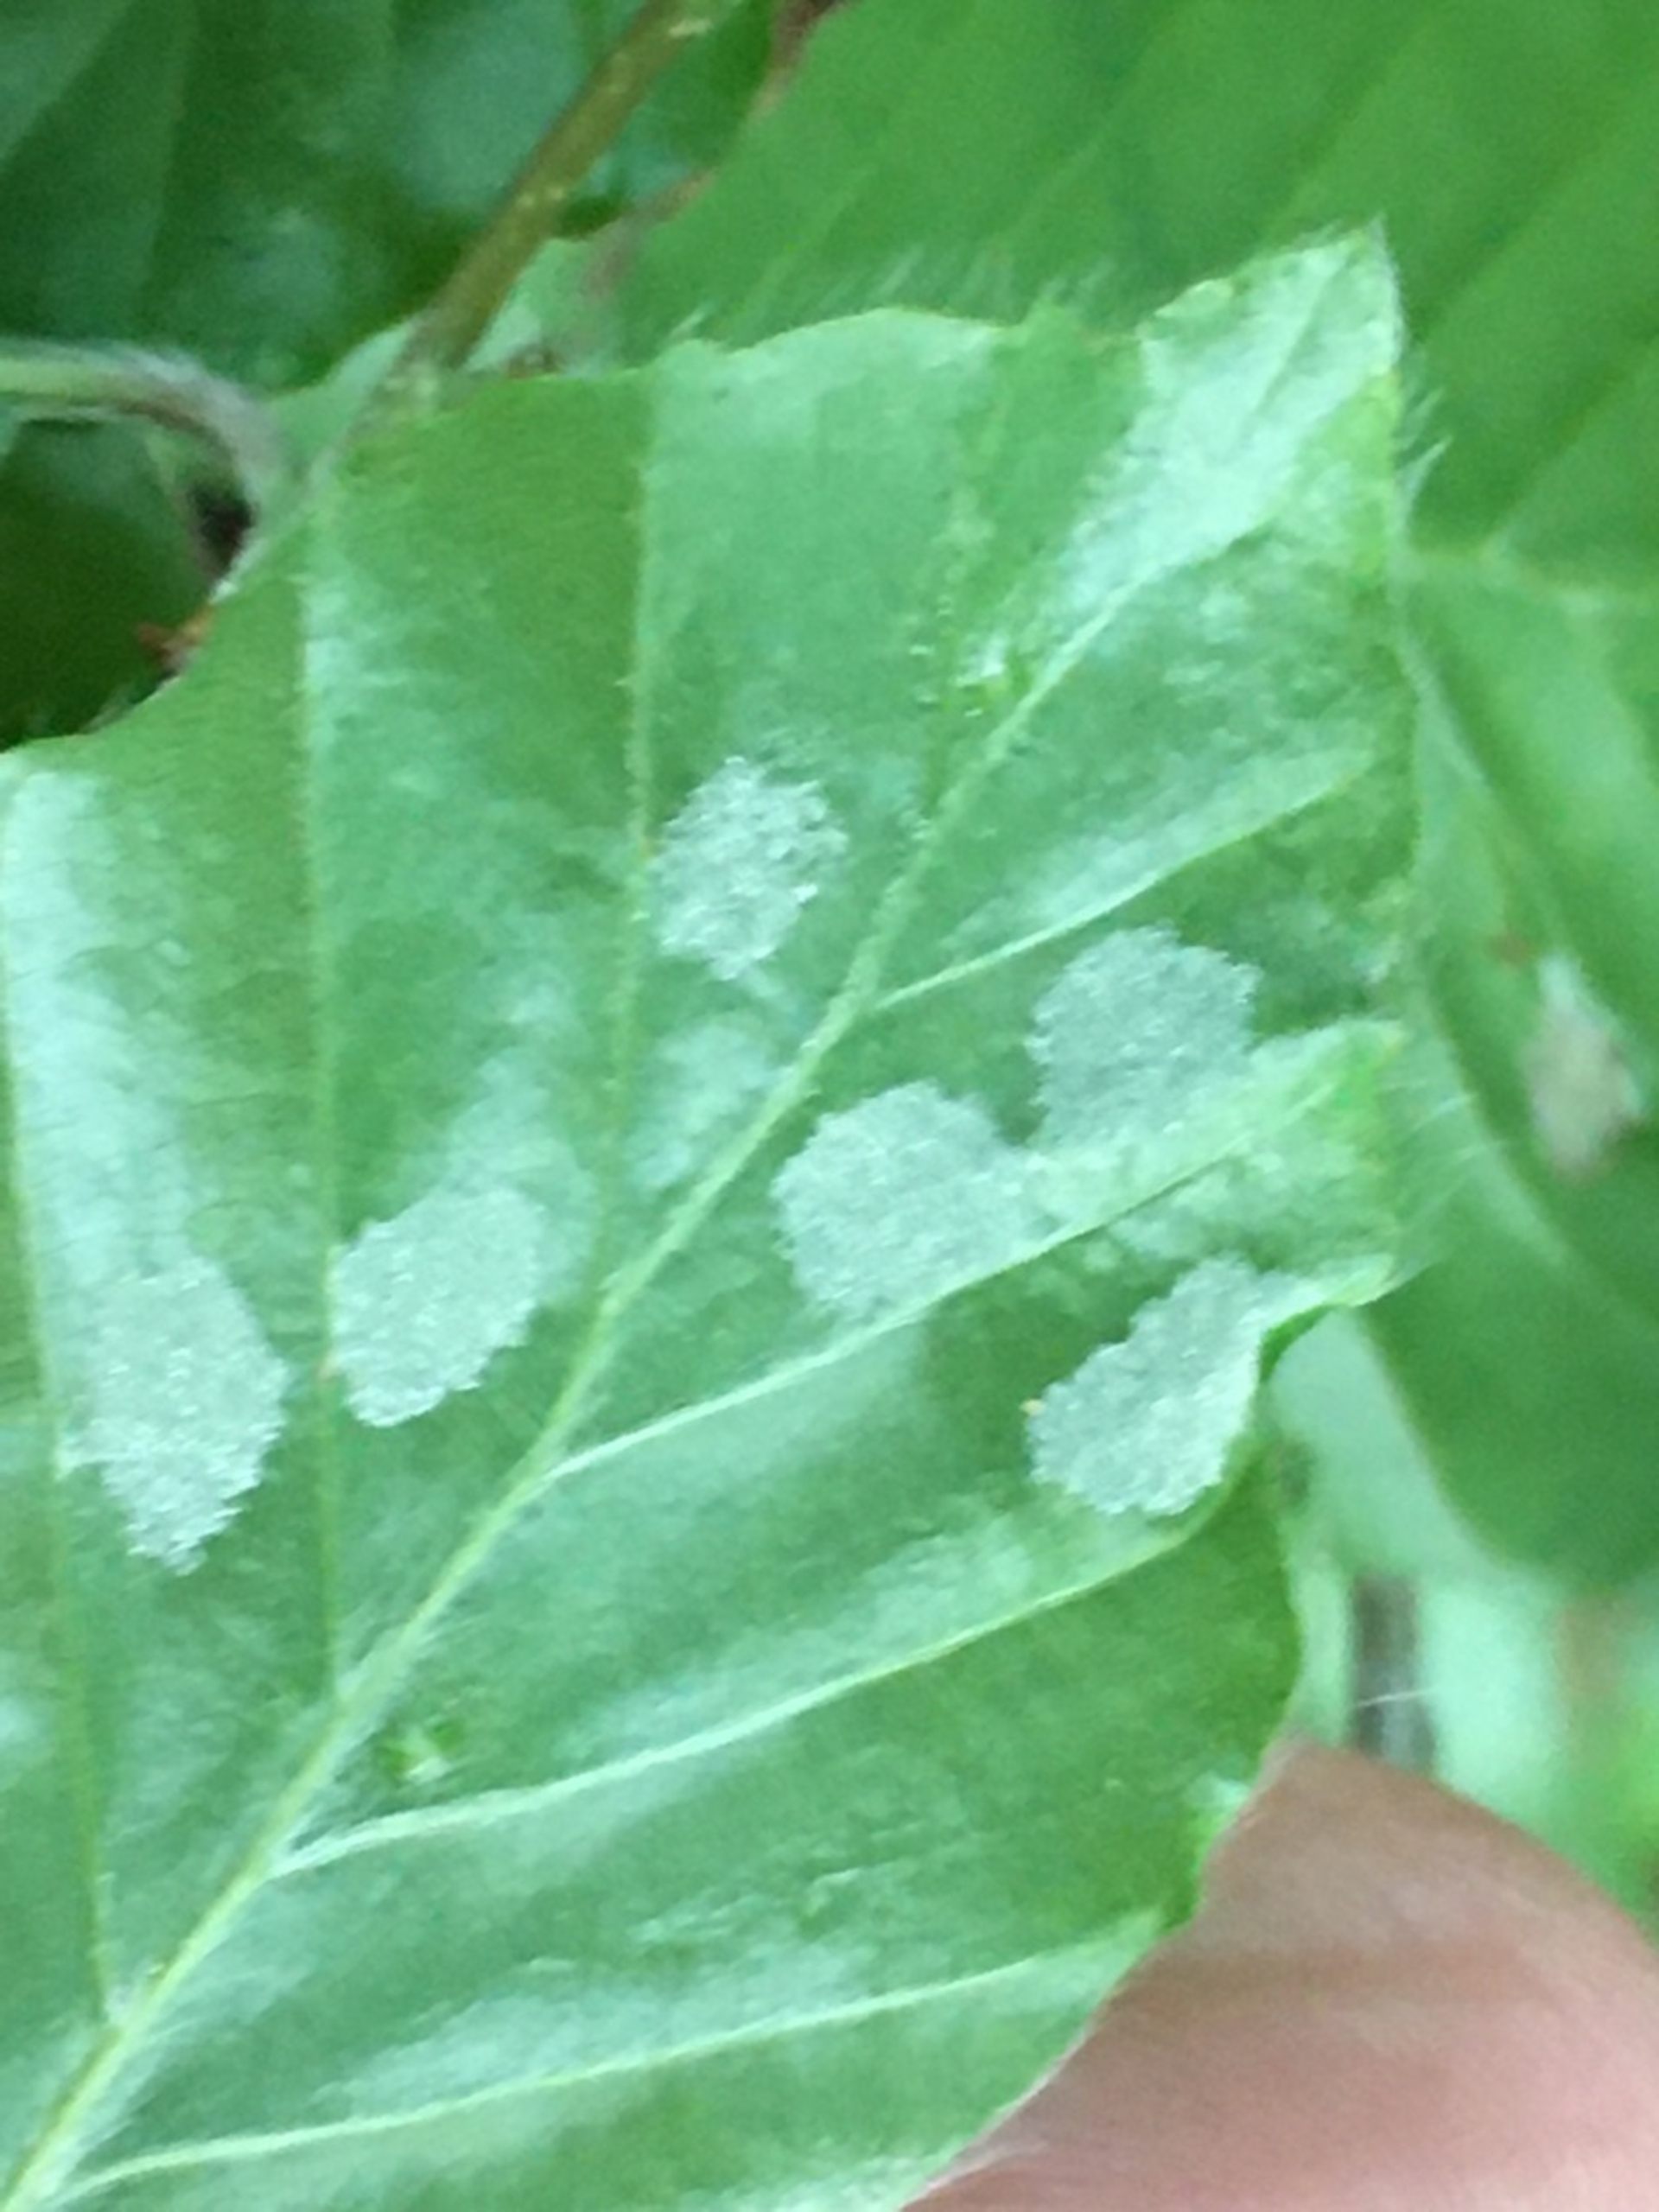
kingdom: Animalia
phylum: Arthropoda
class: Arachnida
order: Trombidiformes
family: Eriophyidae
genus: Aceria
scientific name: Aceria nervisequa
